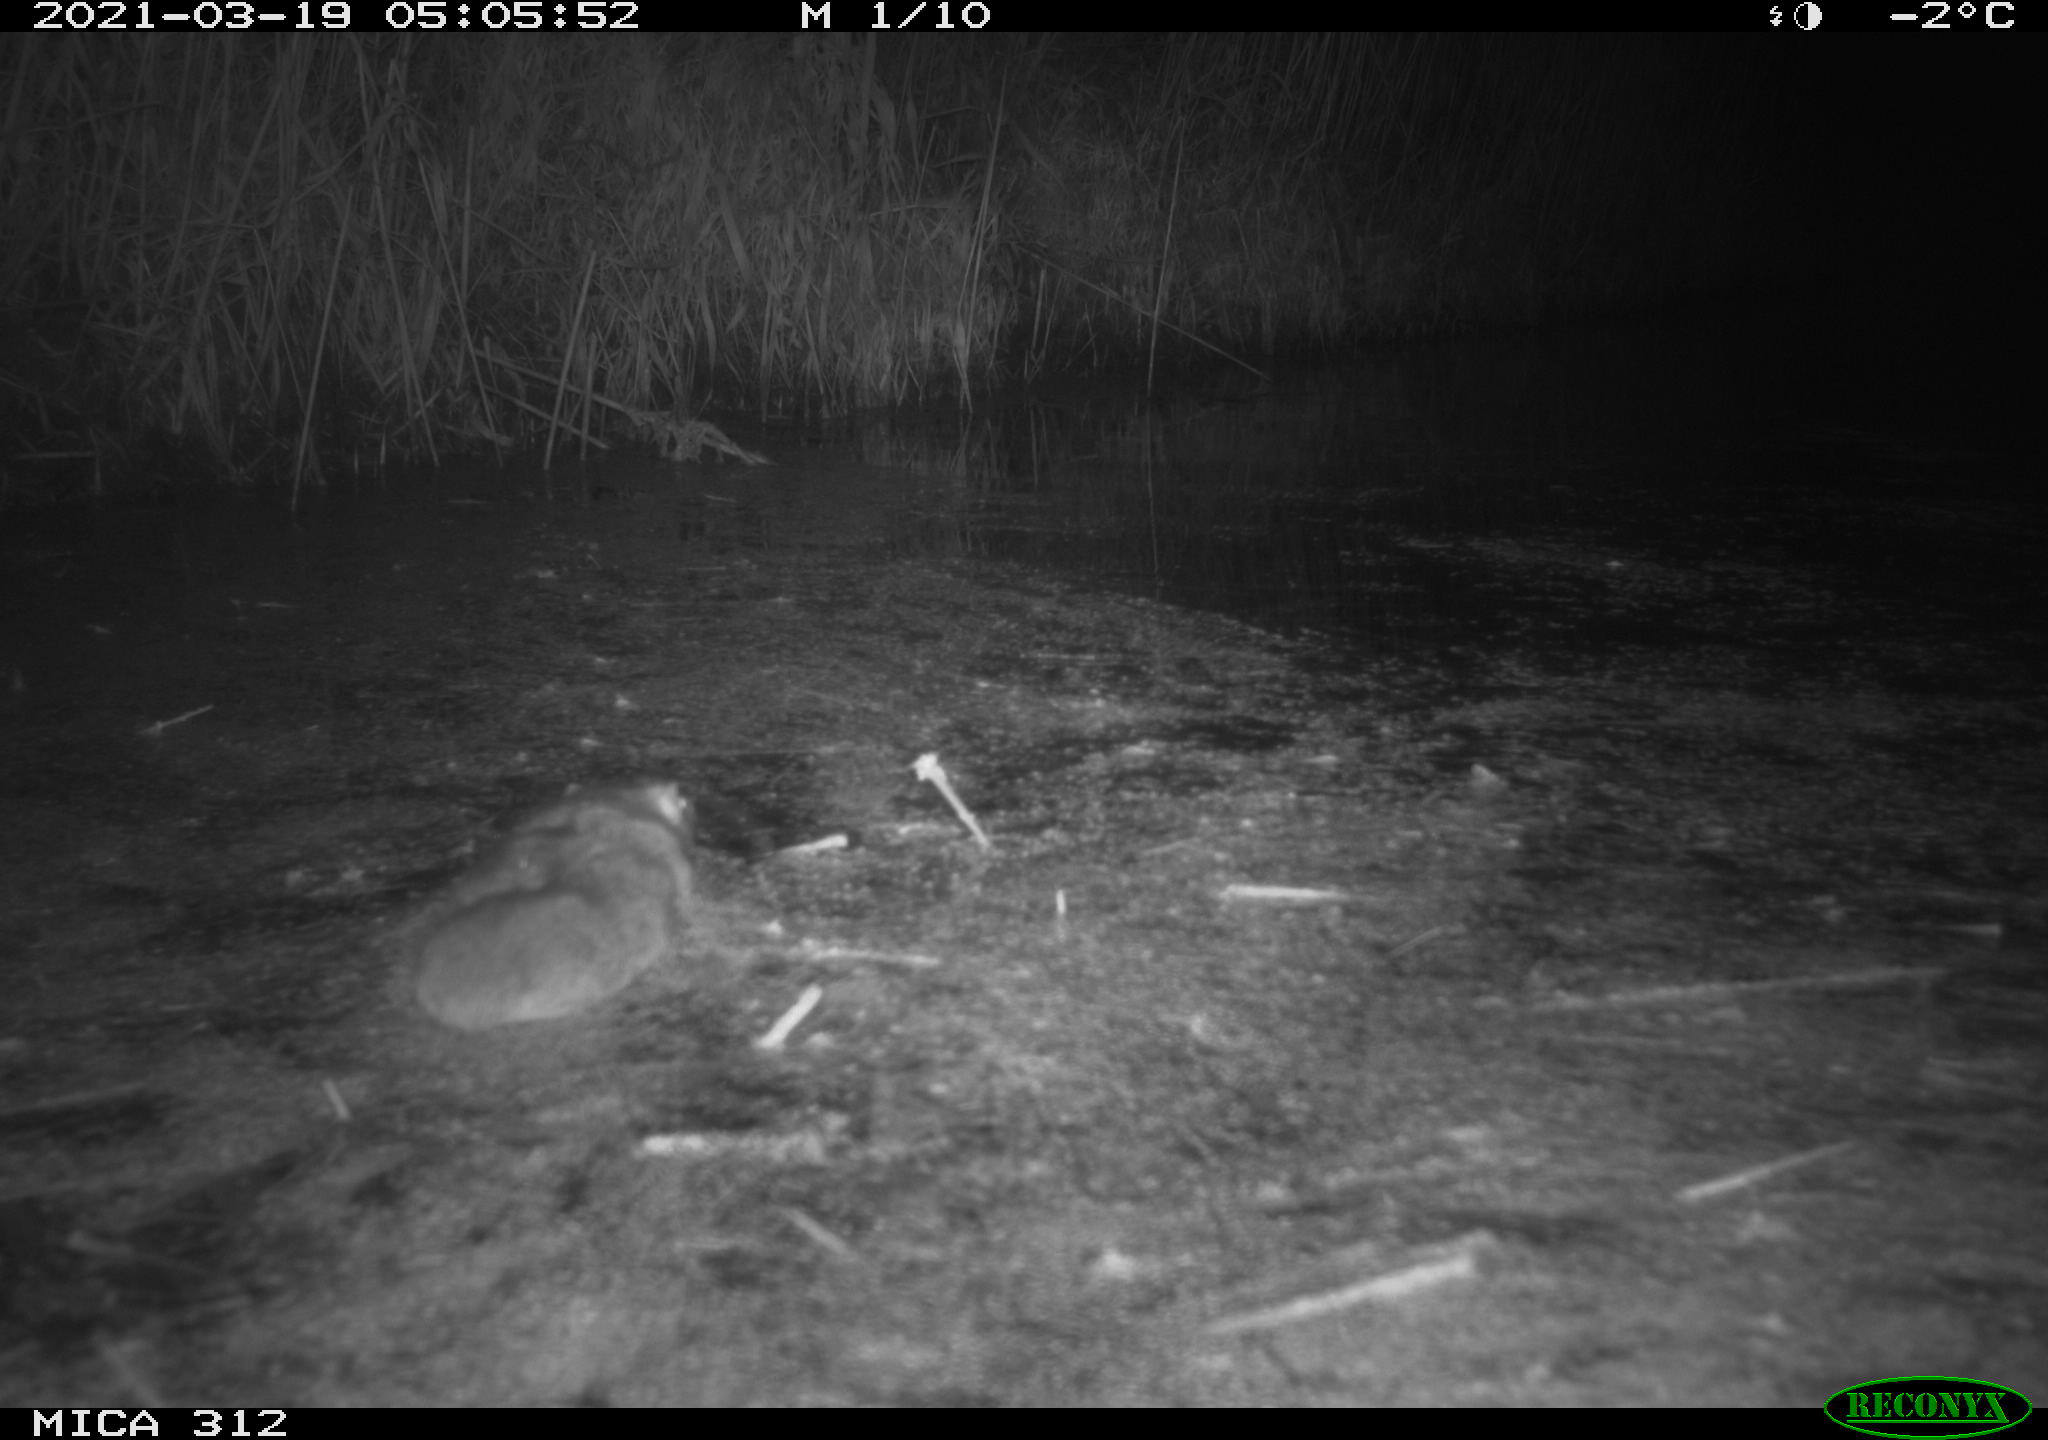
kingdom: Animalia
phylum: Chordata
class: Mammalia
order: Rodentia
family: Muridae
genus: Rattus
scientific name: Rattus norvegicus
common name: Brown rat
